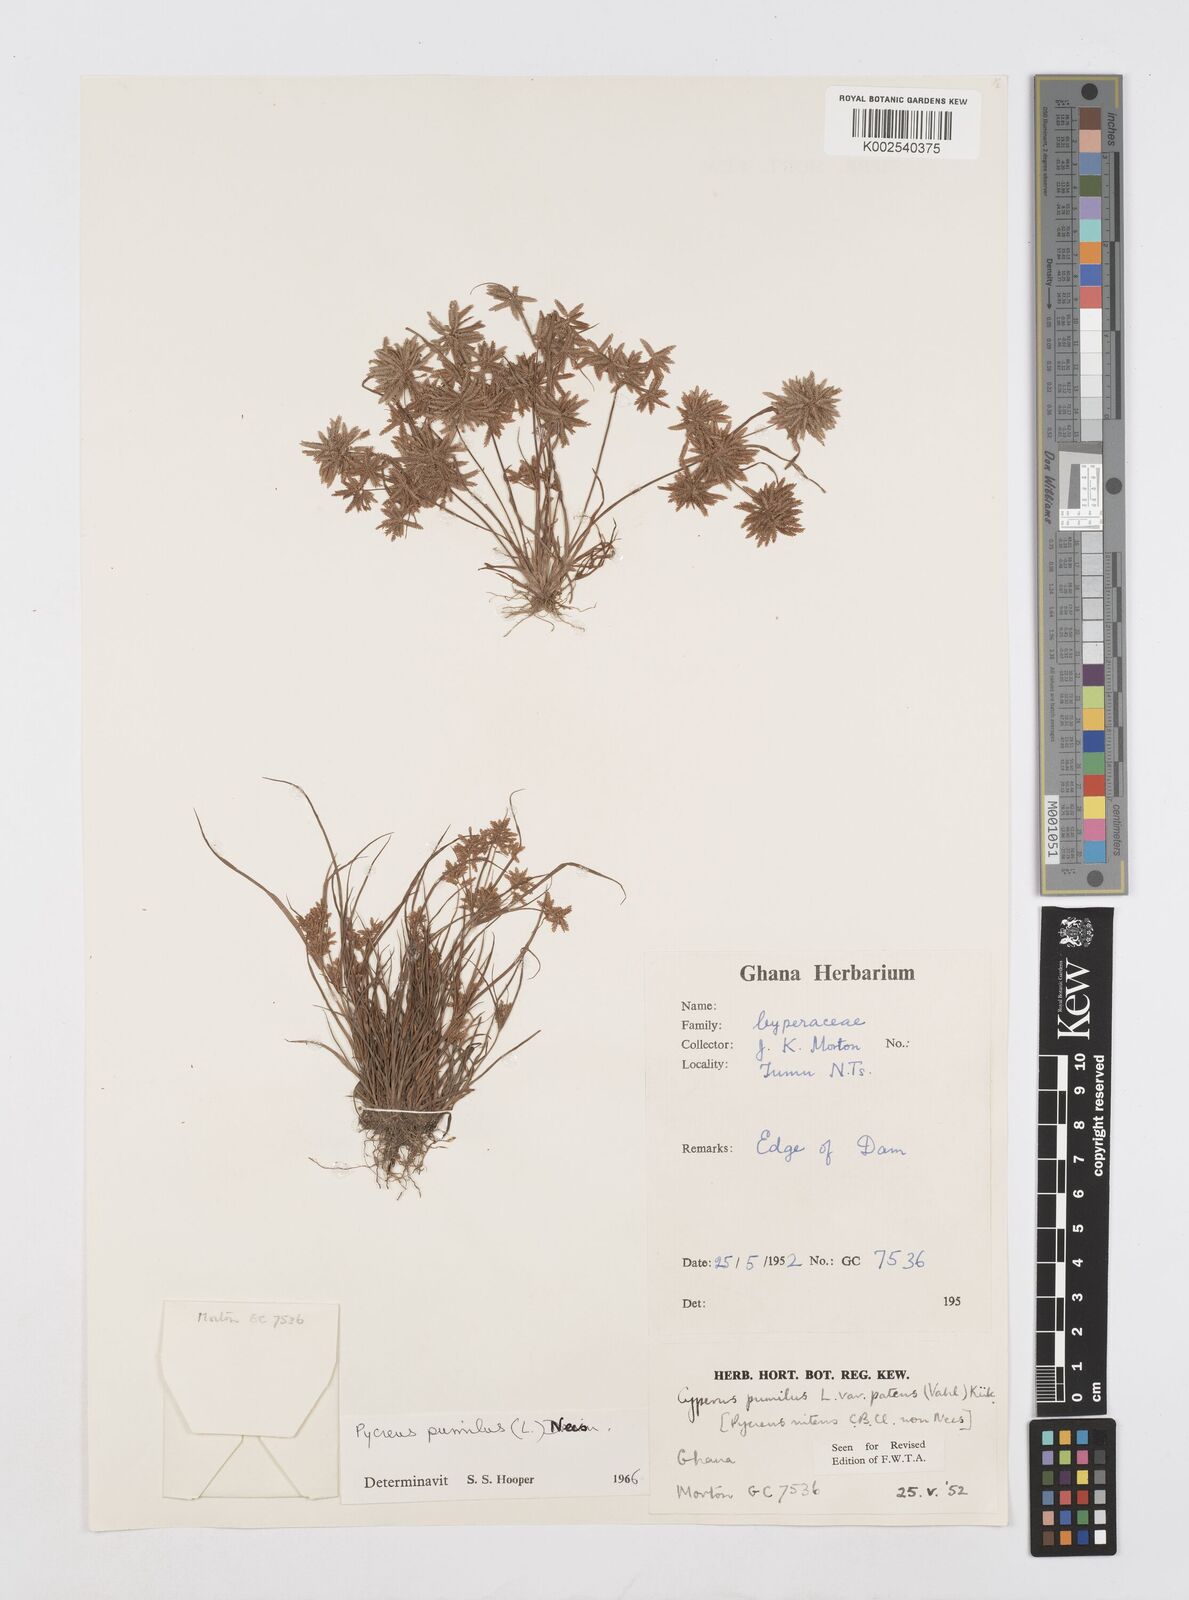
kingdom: Plantae
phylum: Tracheophyta
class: Liliopsida
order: Poales
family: Cyperaceae
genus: Cyperus
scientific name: Cyperus pumilus
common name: Low flatsedge
